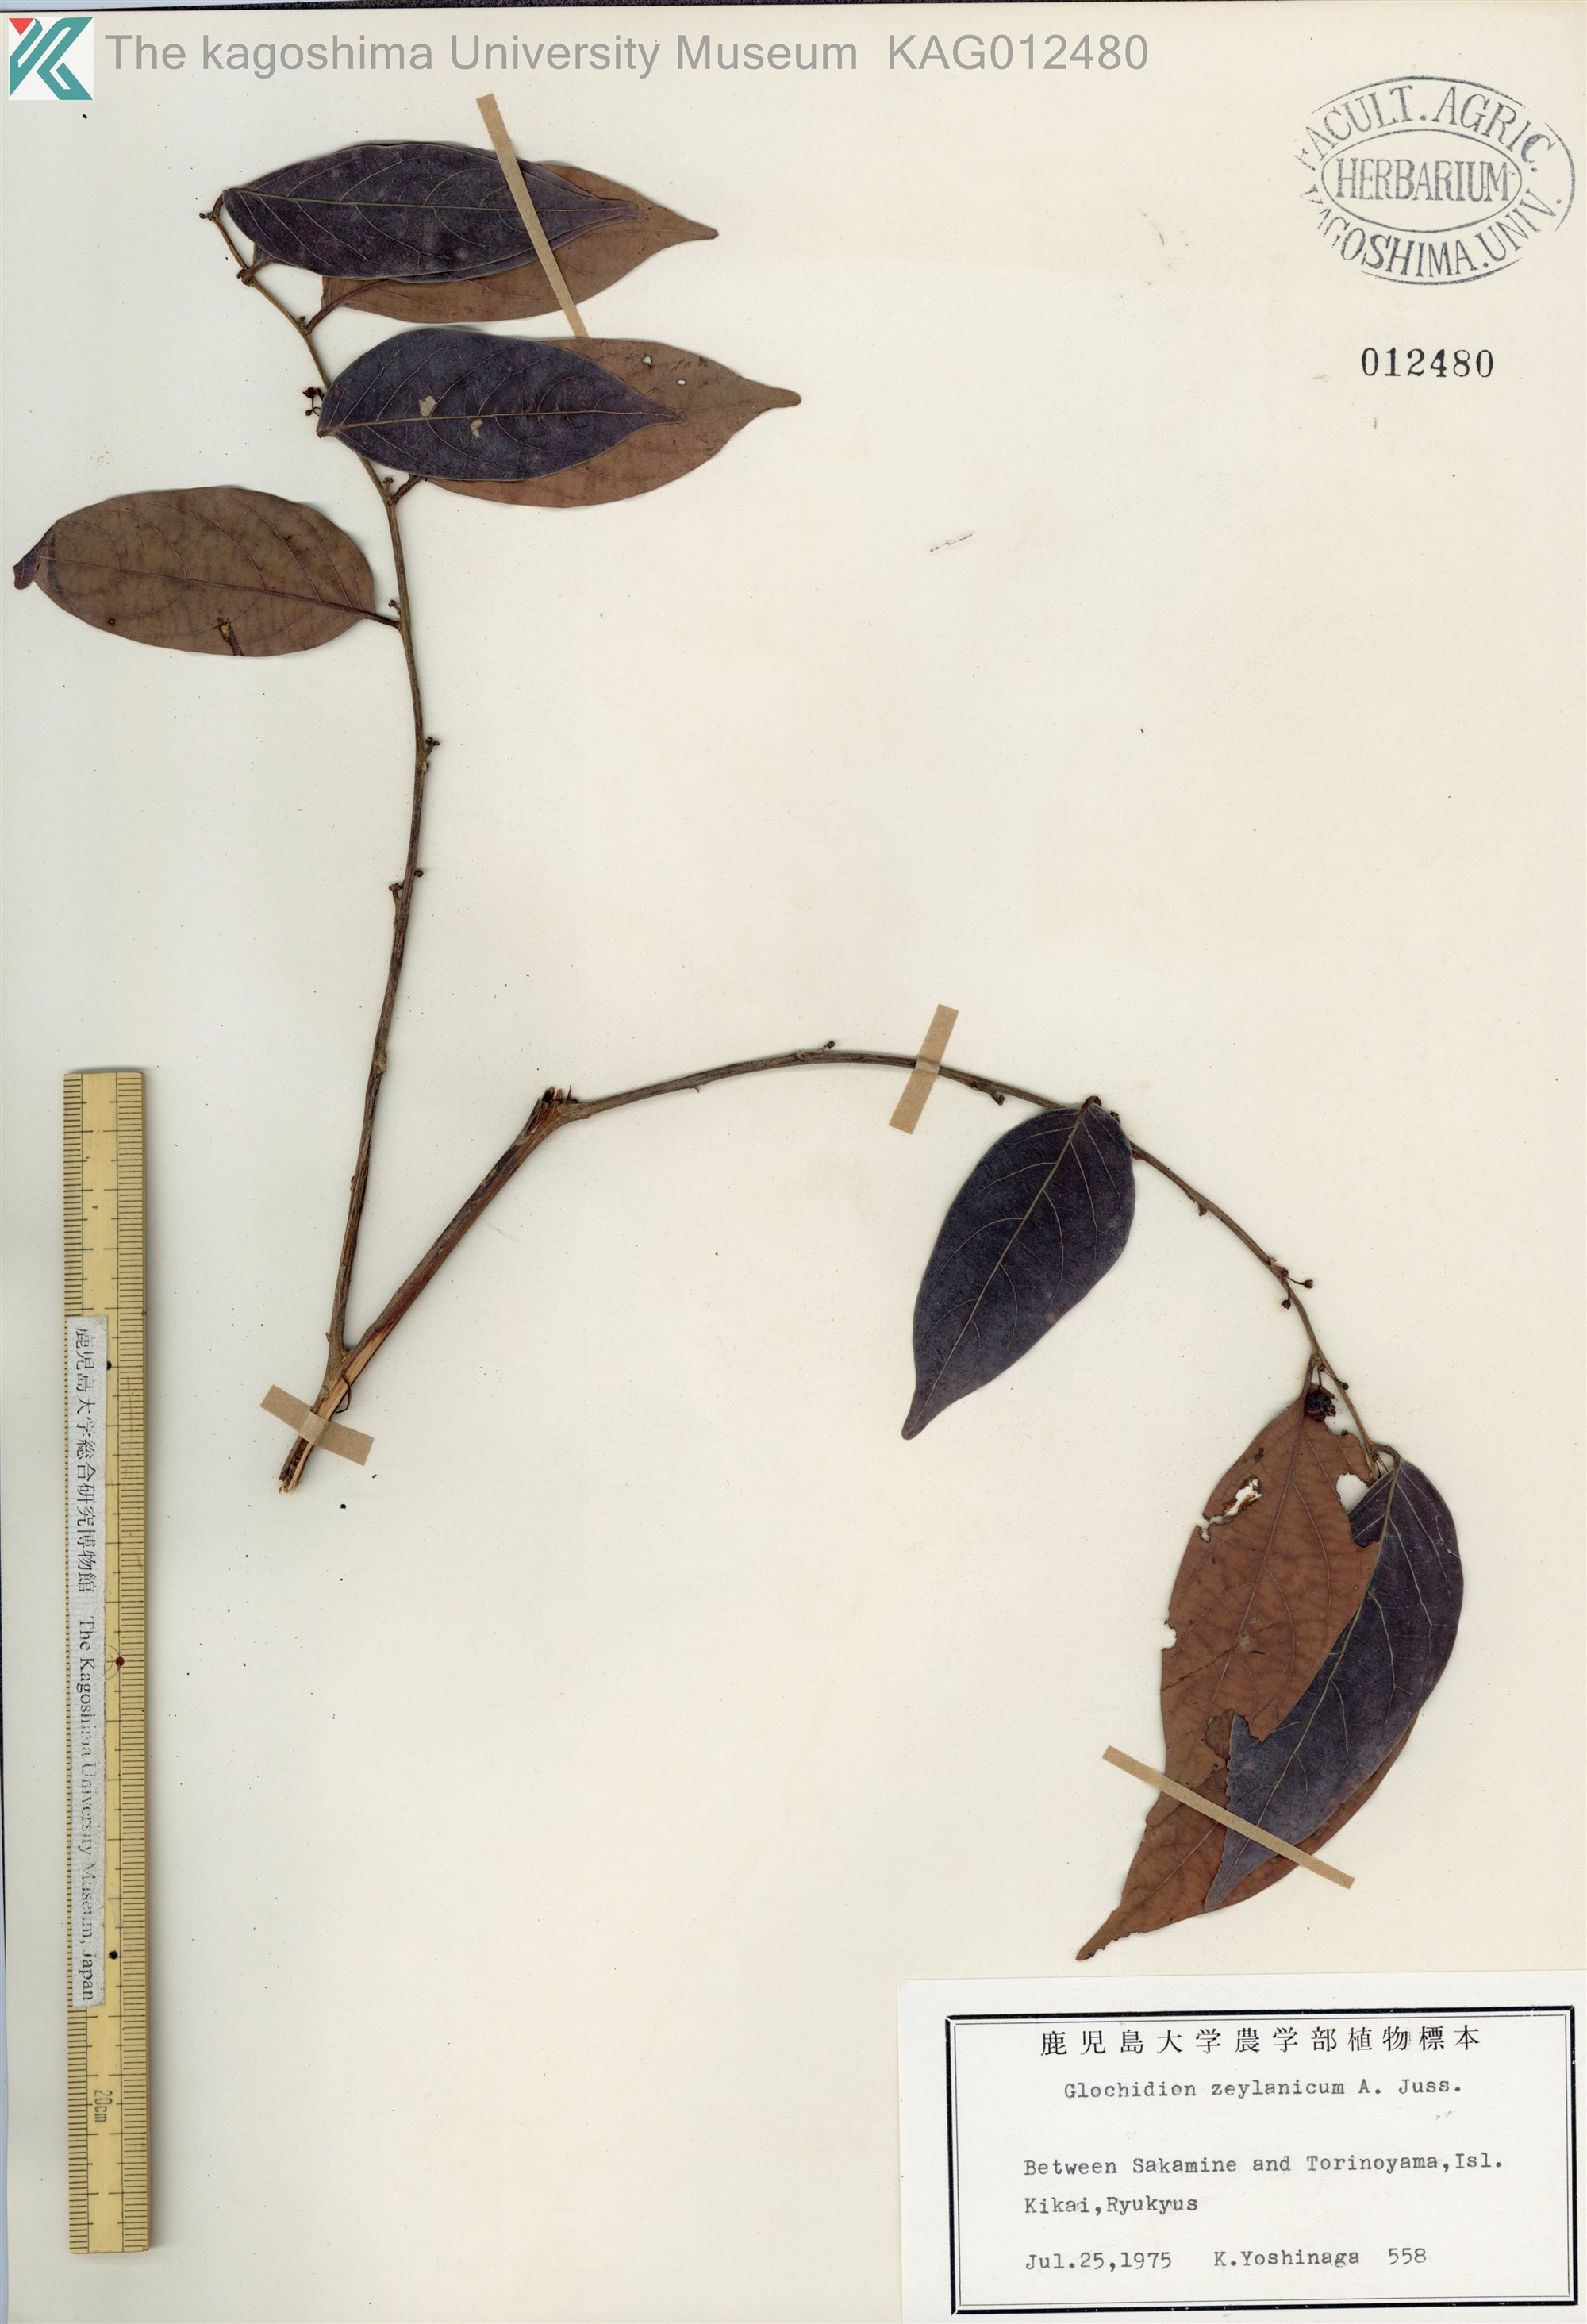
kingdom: Plantae
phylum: Tracheophyta
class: Magnoliopsida
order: Malpighiales
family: Phyllanthaceae
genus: Glochidion
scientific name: Glochidion zeylanicum
